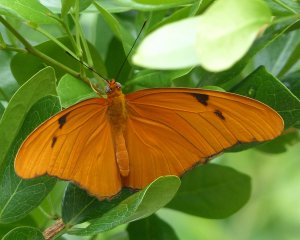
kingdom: Animalia
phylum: Arthropoda
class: Insecta
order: Lepidoptera
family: Nymphalidae
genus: Dryas
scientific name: Dryas iulia
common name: Julia
